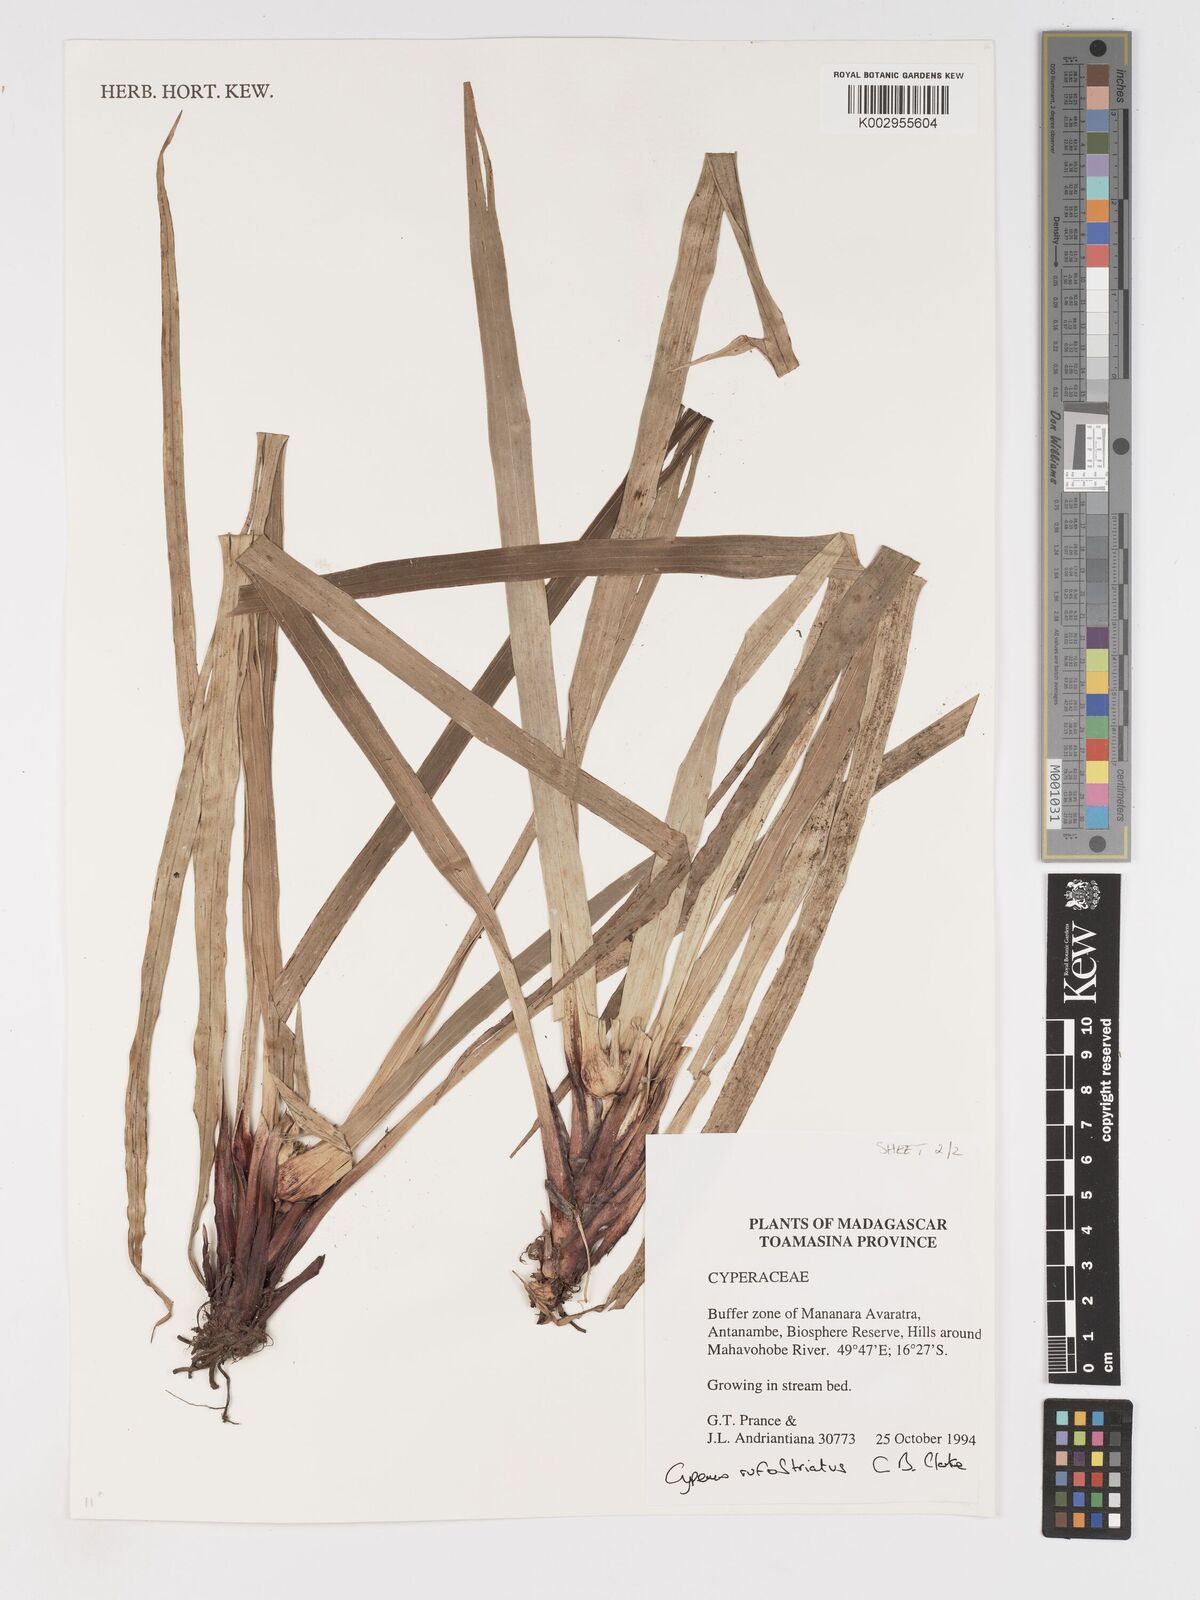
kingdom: Plantae
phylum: Tracheophyta
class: Liliopsida
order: Poales
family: Cyperaceae
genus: Cyperus
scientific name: Cyperus rufostriatus
